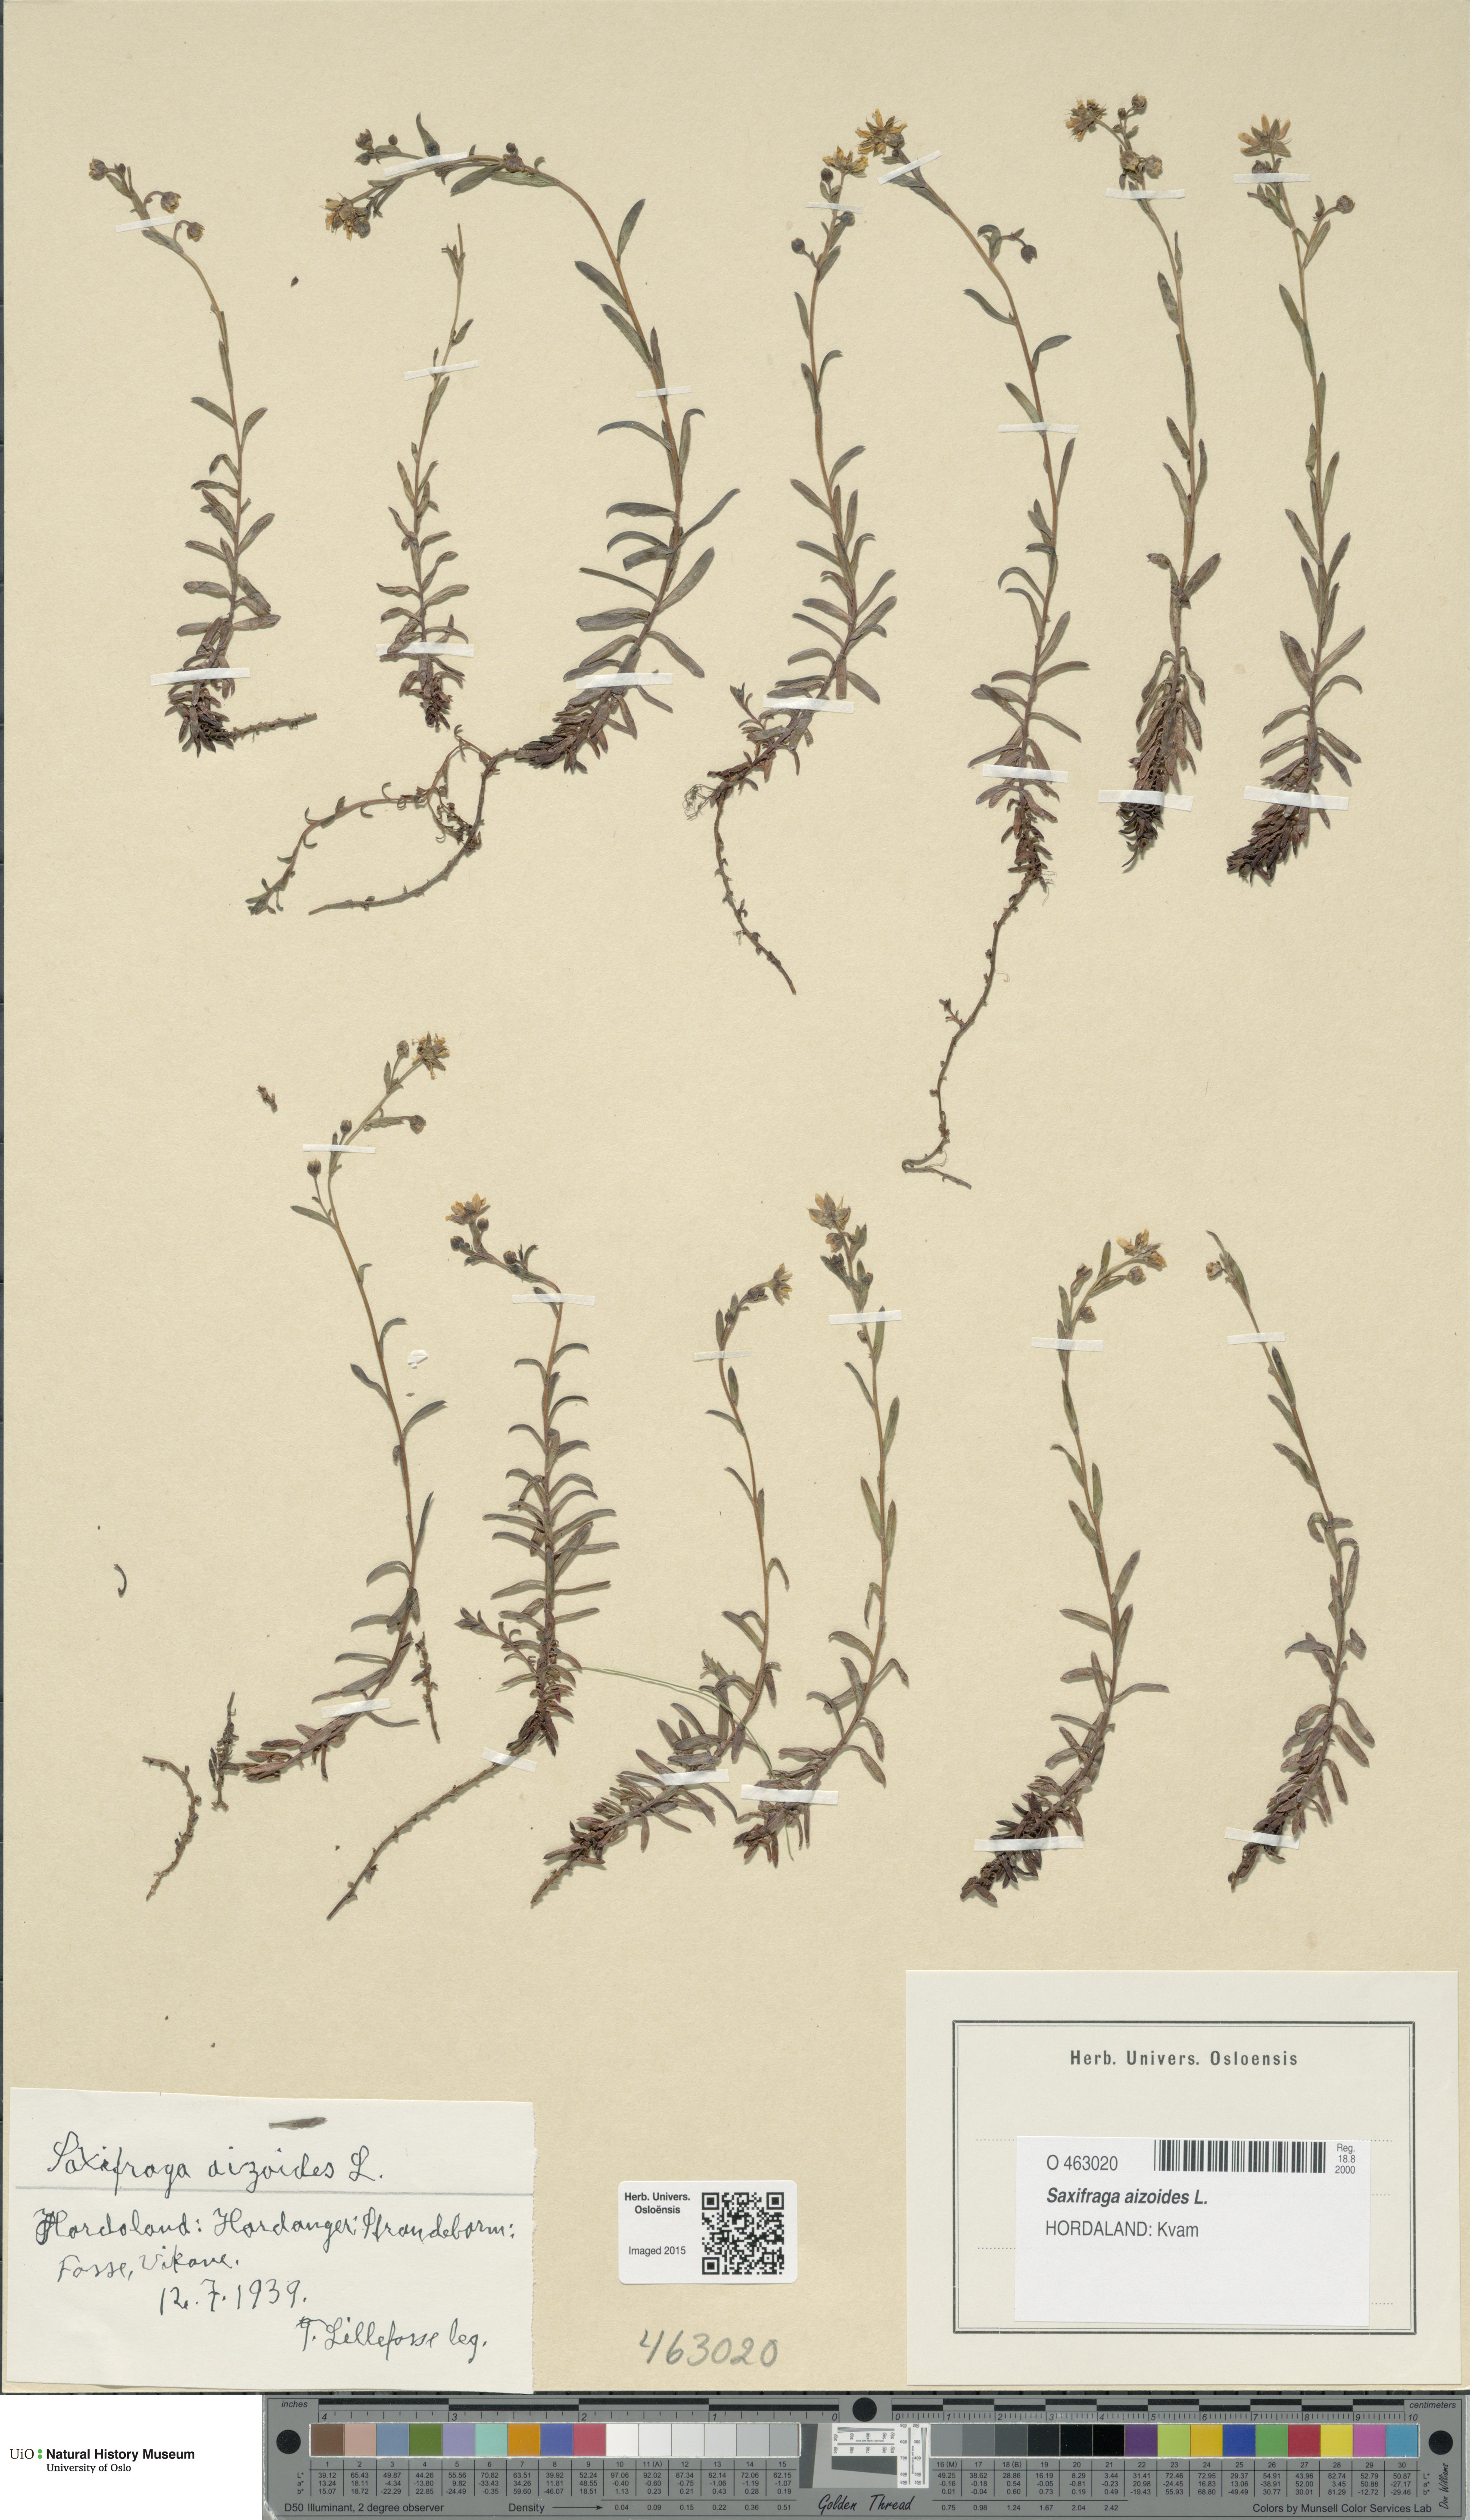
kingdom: Plantae
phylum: Tracheophyta
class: Magnoliopsida
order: Saxifragales
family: Saxifragaceae
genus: Saxifraga
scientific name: Saxifraga aizoides
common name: Yellow mountain saxifrage
